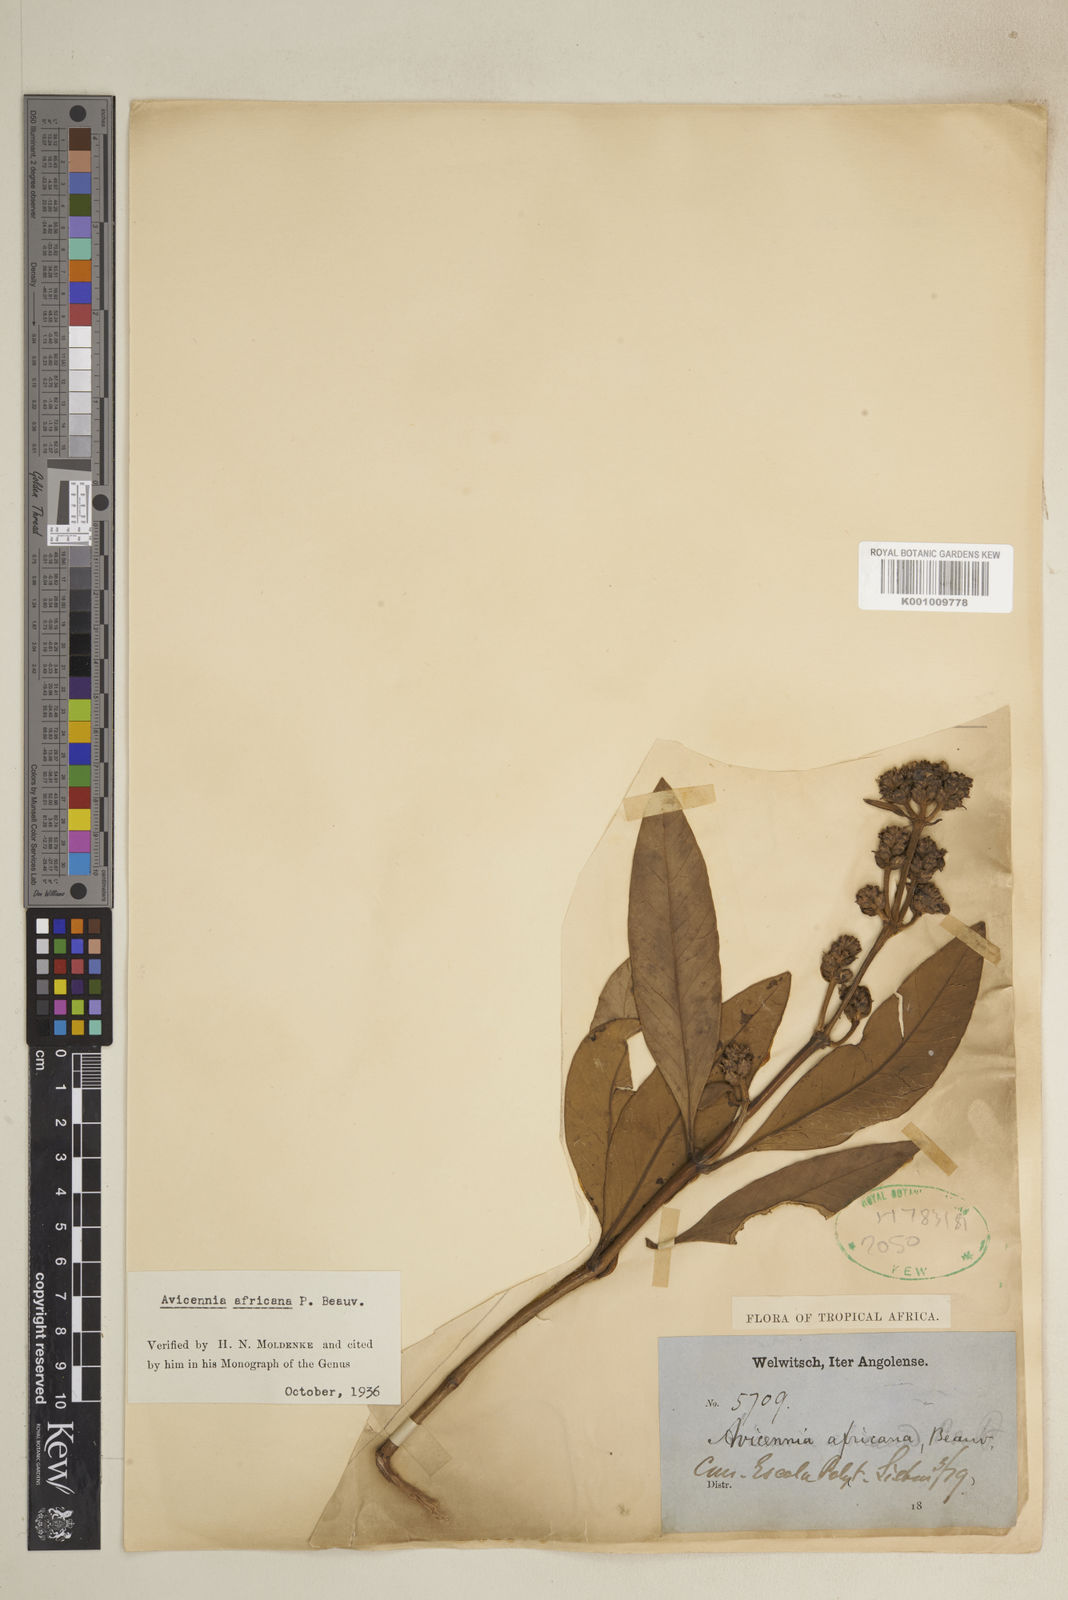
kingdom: Plantae
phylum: Tracheophyta
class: Magnoliopsida
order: Lamiales
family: Acanthaceae
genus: Avicennia
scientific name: Avicennia germinans
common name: Black mangrove
